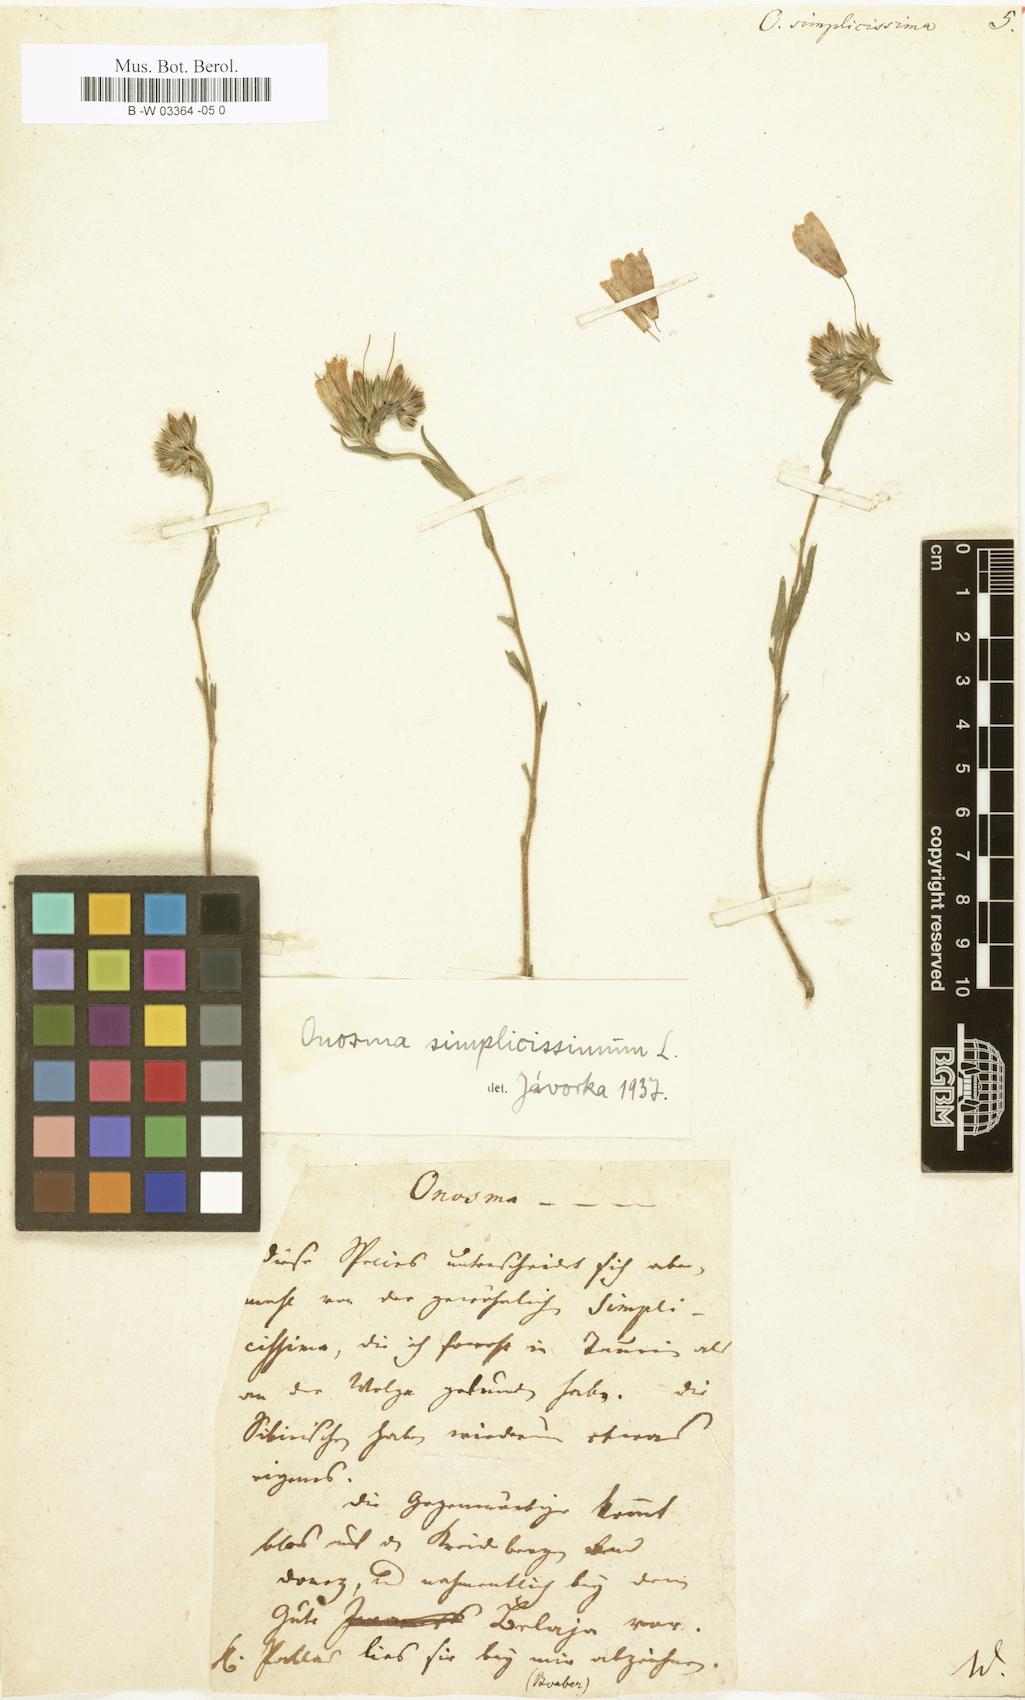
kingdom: Plantae
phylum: Tracheophyta
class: Magnoliopsida
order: Boraginales
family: Boraginaceae
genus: Onosma
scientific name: Onosma simplicissima
